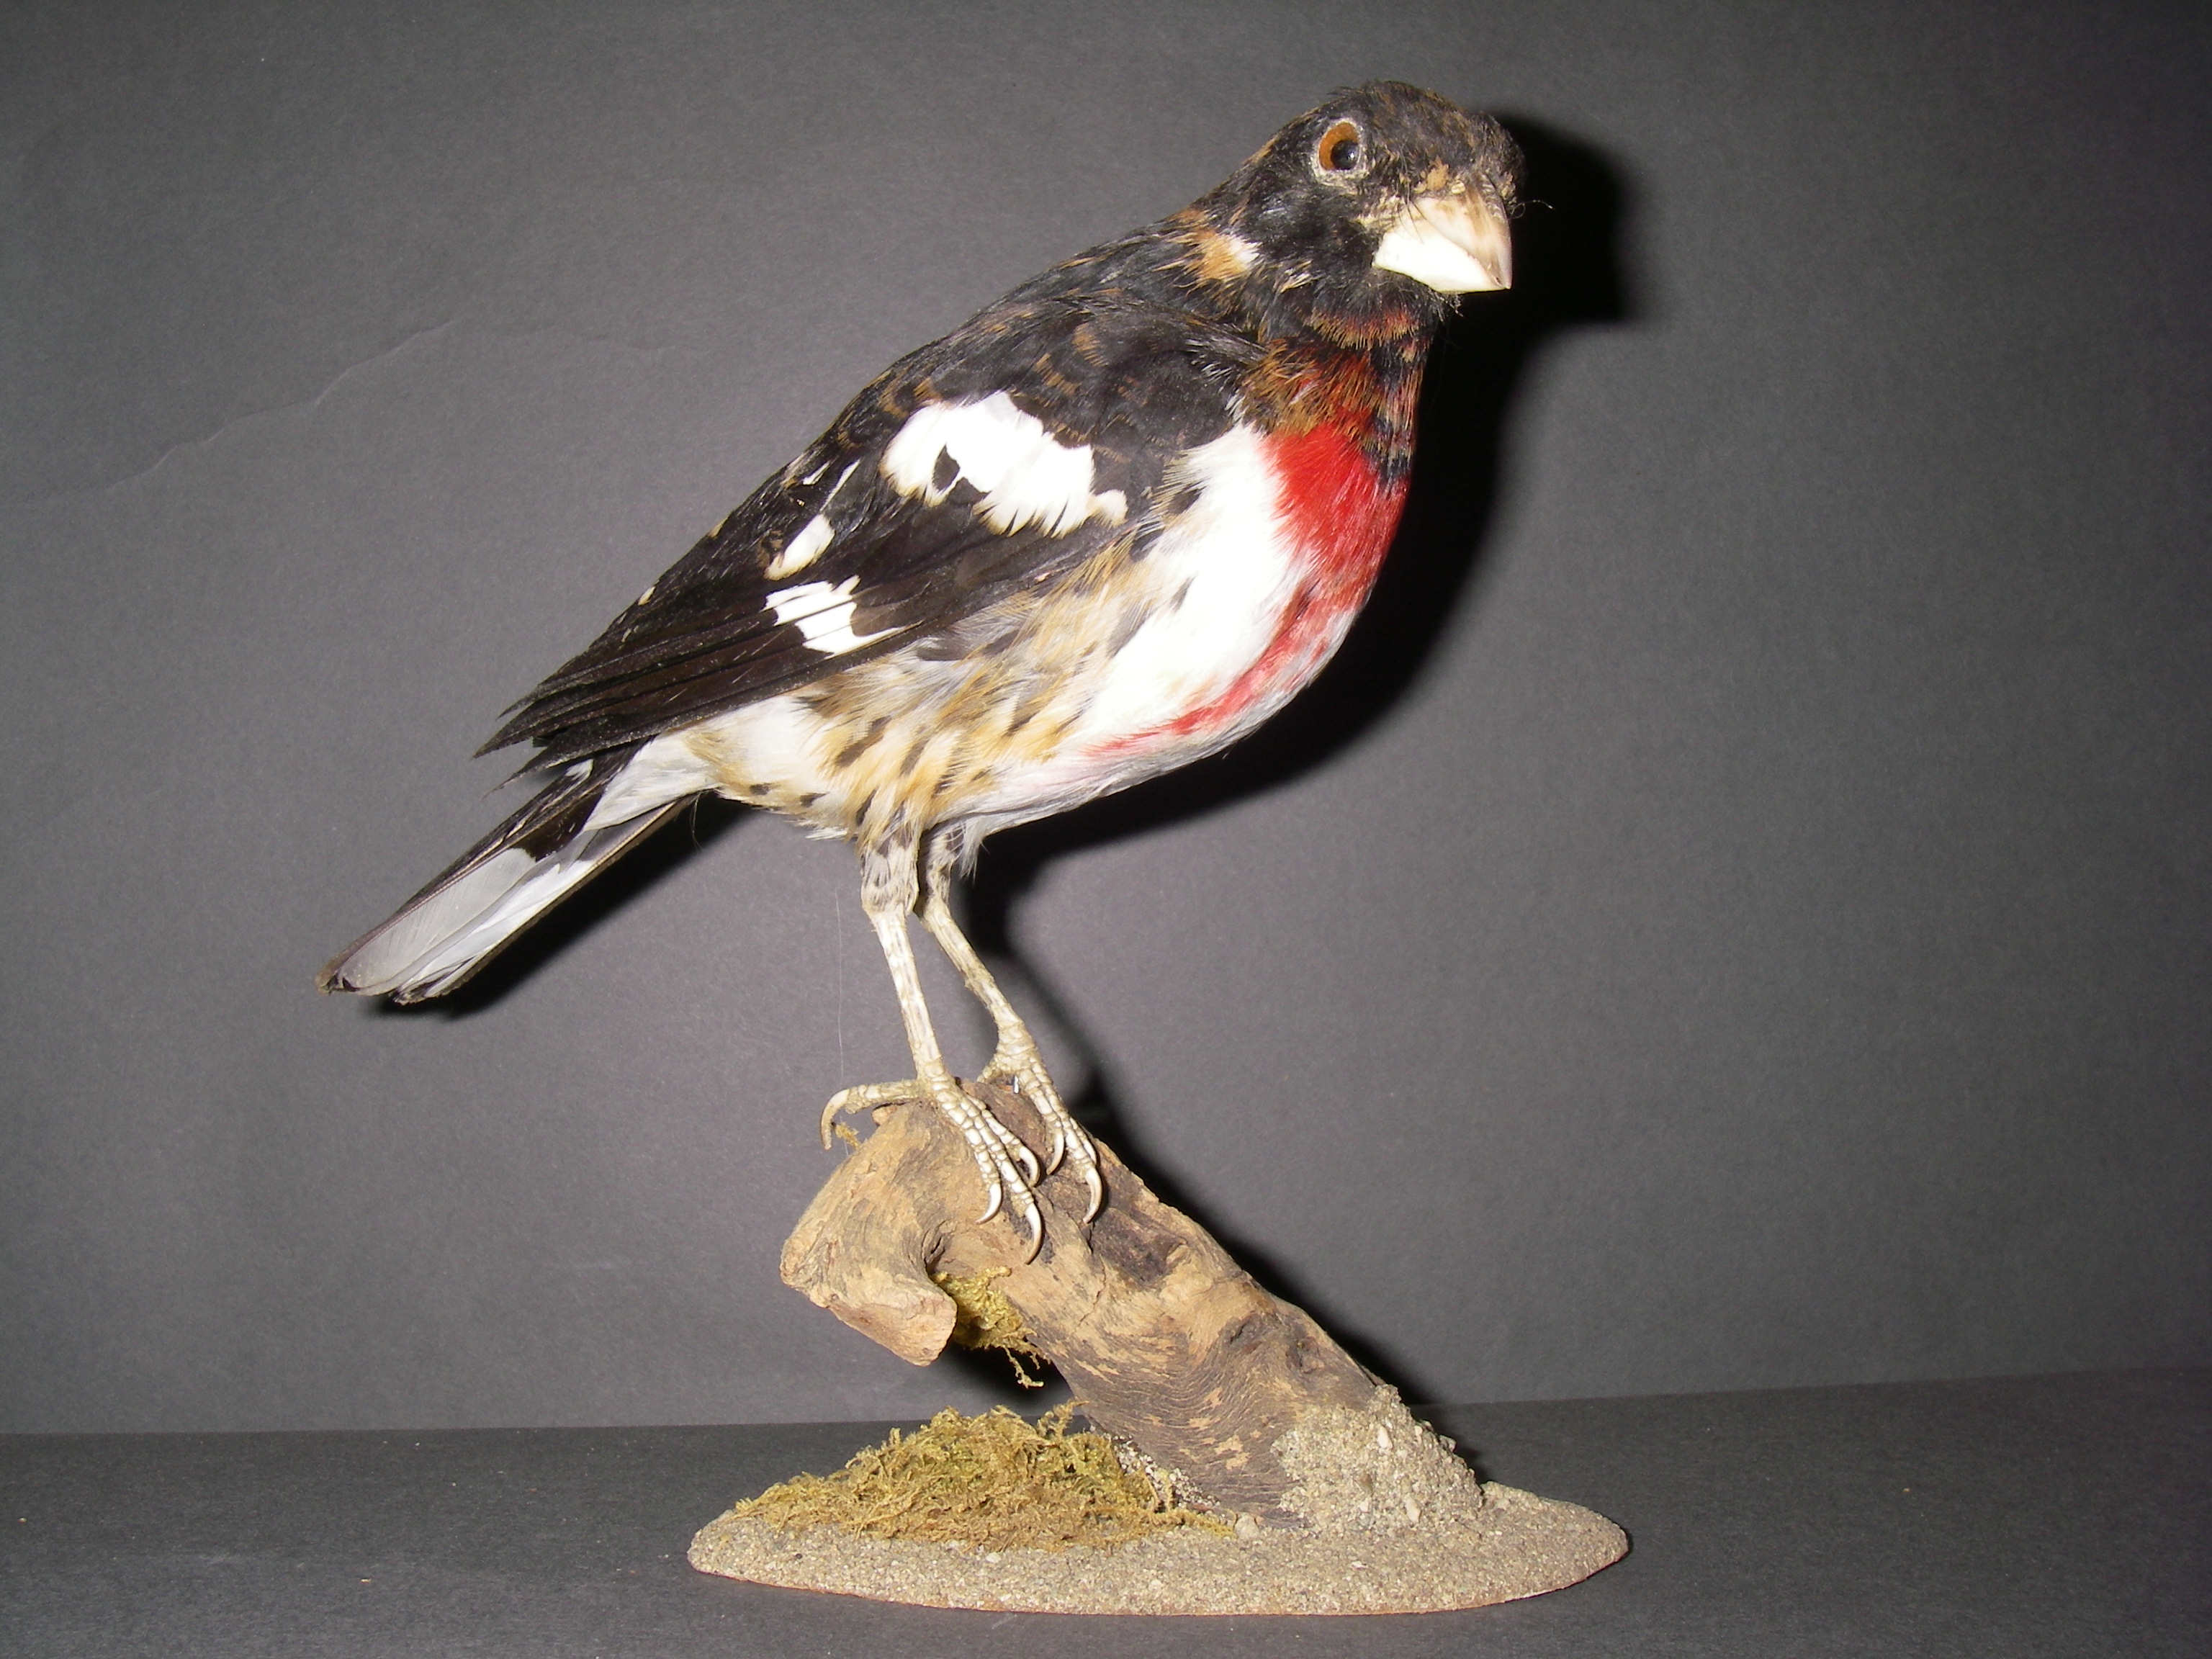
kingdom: Animalia
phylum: Chordata
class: Aves
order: Passeriformes
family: Cardinalidae
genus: Pheucticus
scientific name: Pheucticus ludovicianus
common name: Rose-breasted grosbeak
